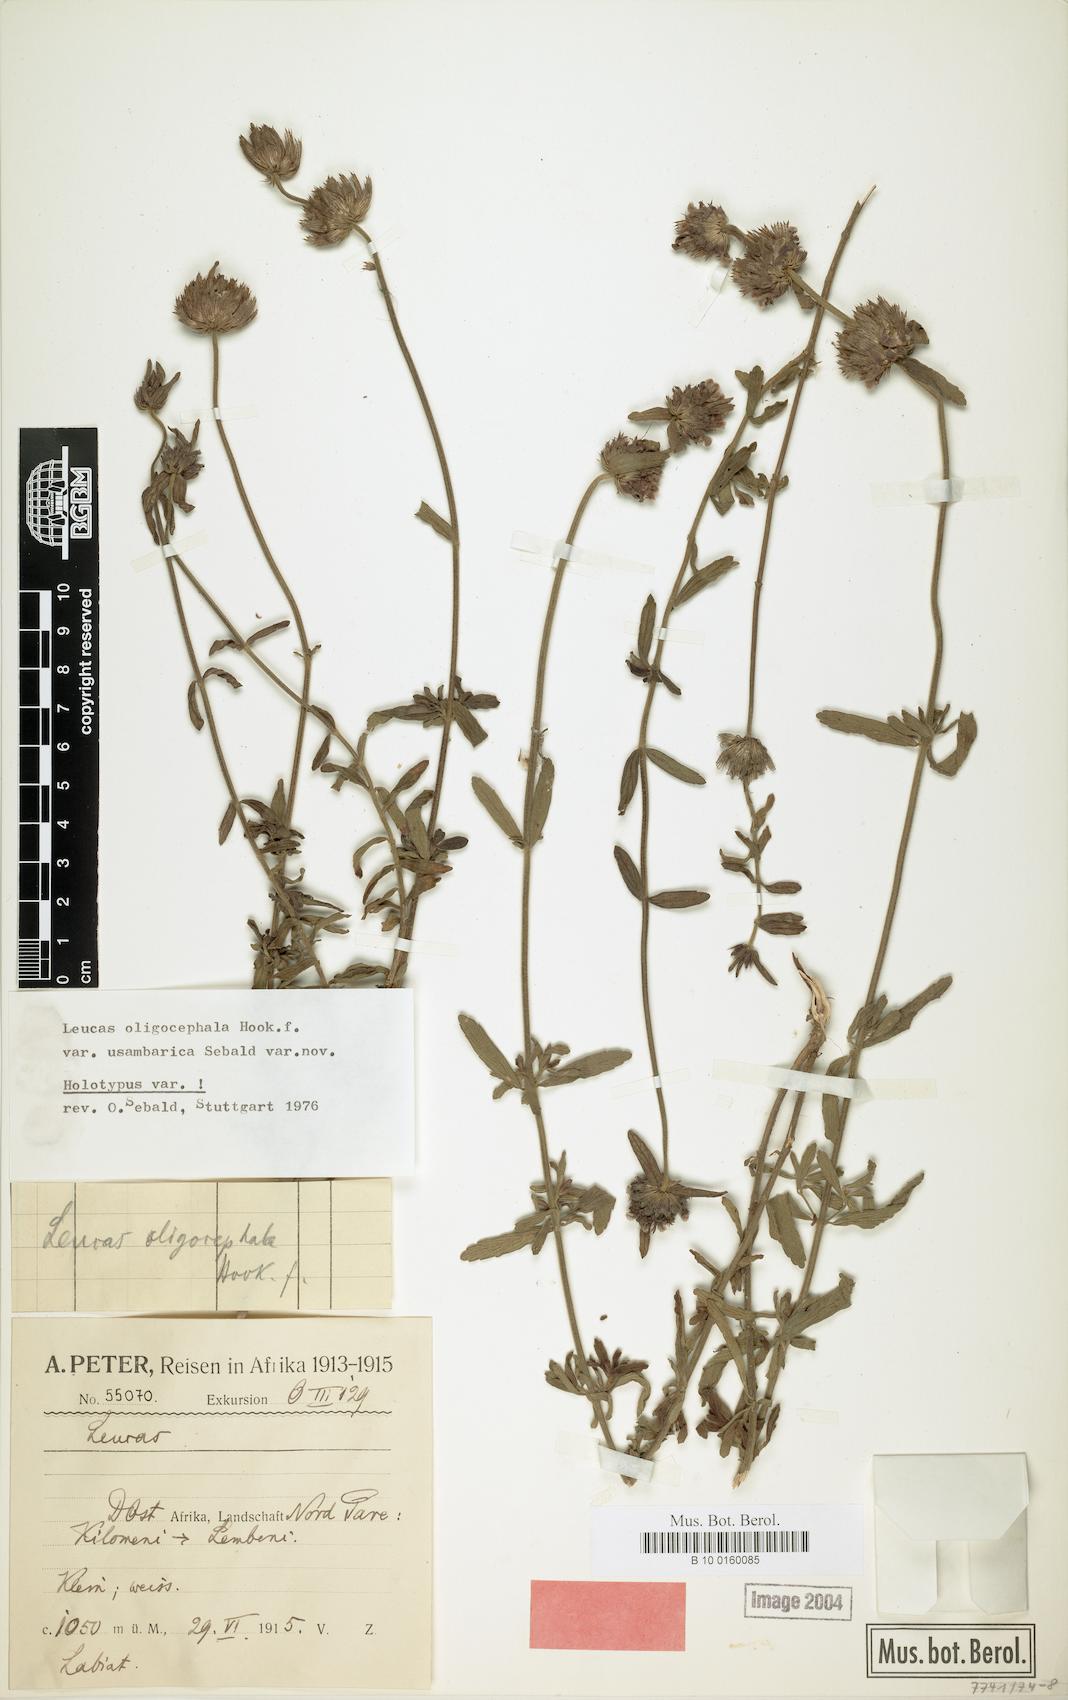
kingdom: Plantae
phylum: Tracheophyta
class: Magnoliopsida
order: Lamiales
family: Lamiaceae
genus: Leucas
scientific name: Leucas oligocephala
